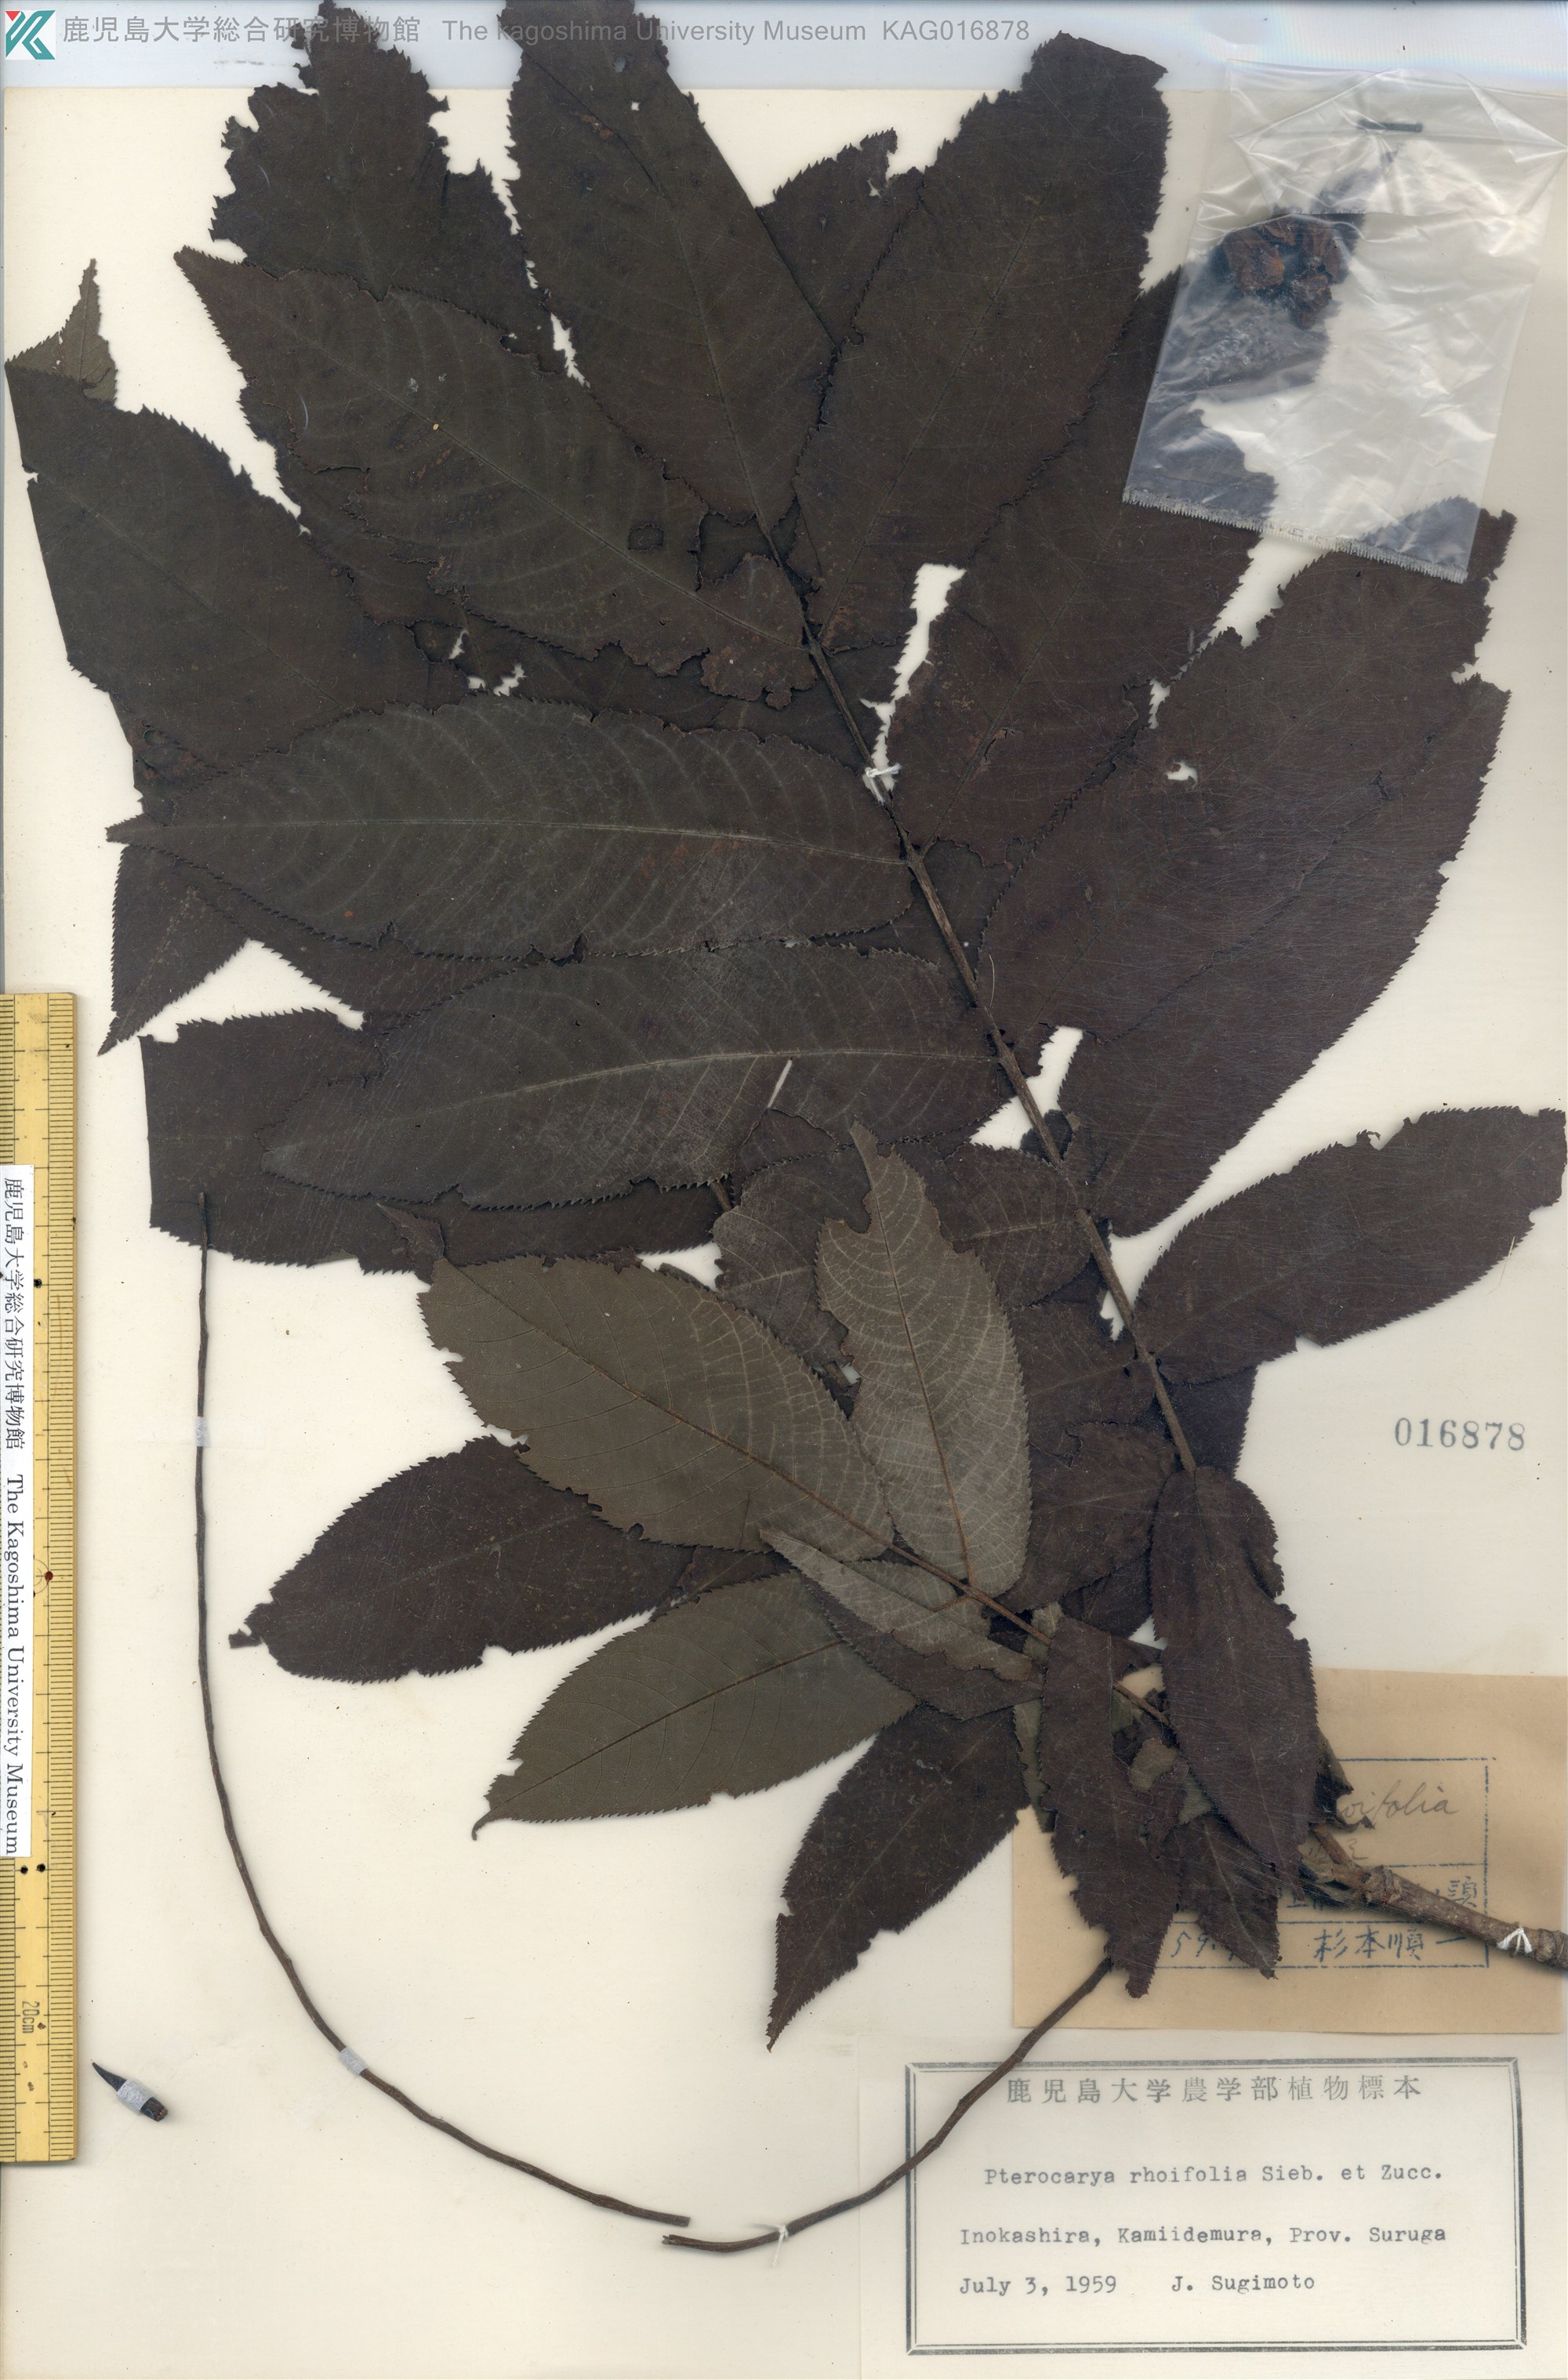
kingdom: Plantae
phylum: Tracheophyta
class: Magnoliopsida
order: Fagales
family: Juglandaceae
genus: Pterocarya
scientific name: Pterocarya rhoifolia
